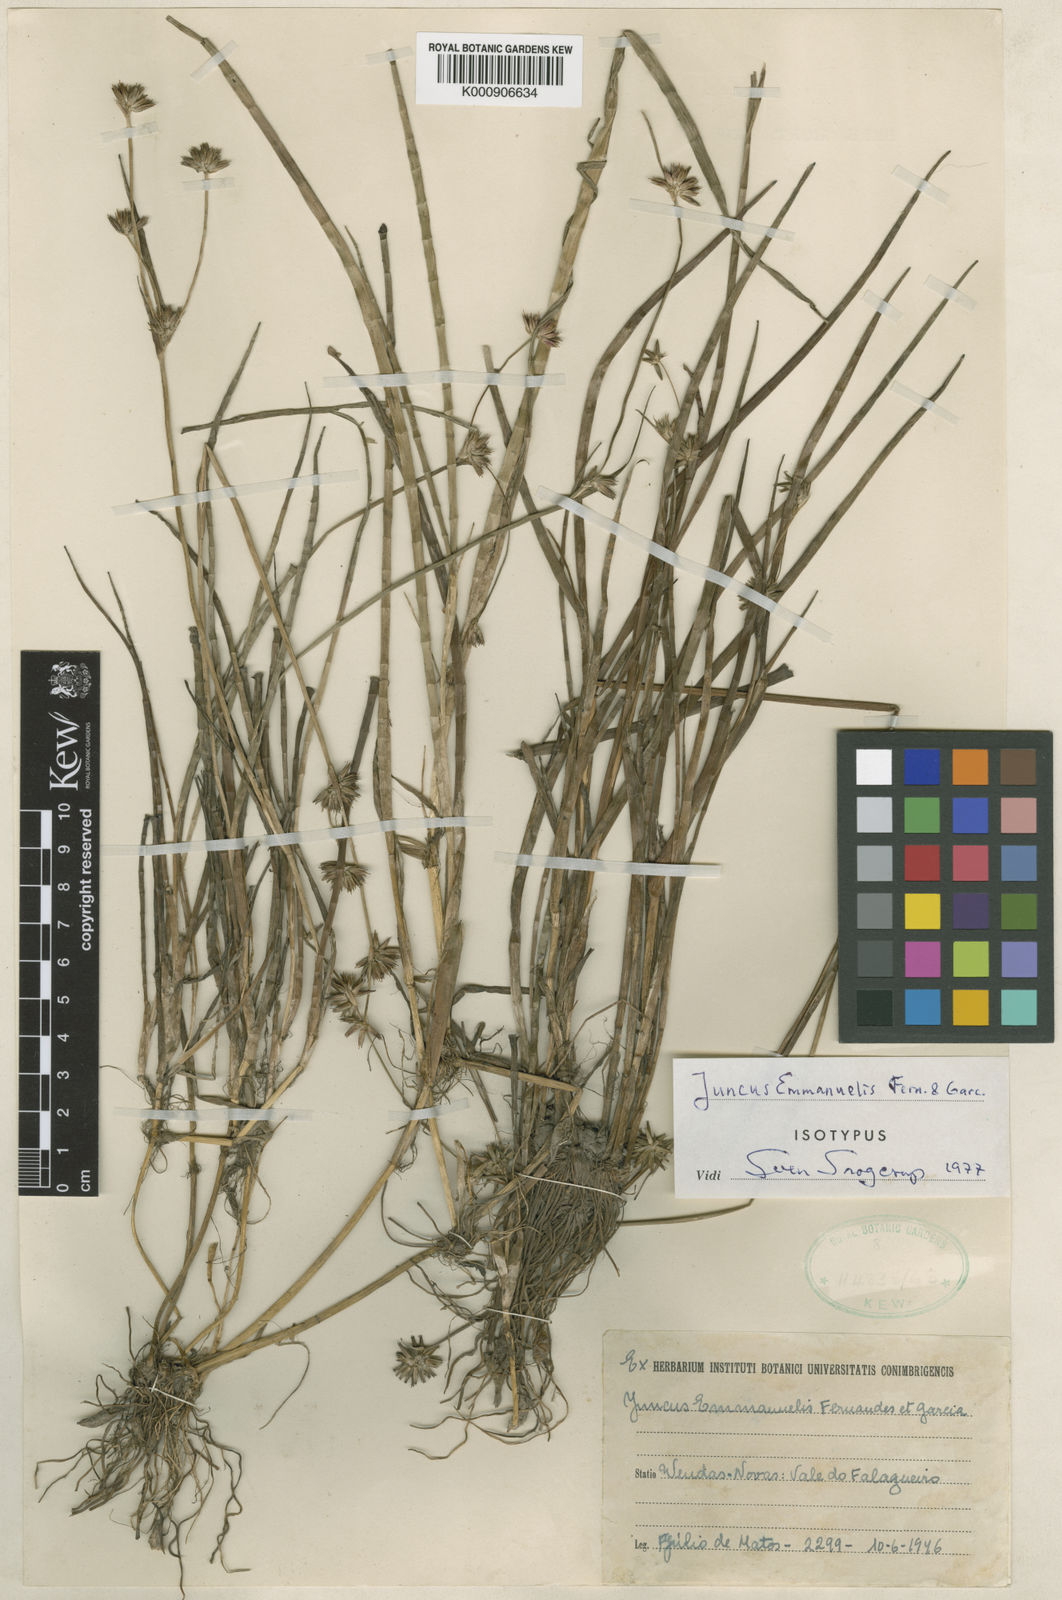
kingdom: Plantae
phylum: Tracheophyta
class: Liliopsida
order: Poales
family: Juncaceae
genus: Juncus
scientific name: Juncus
